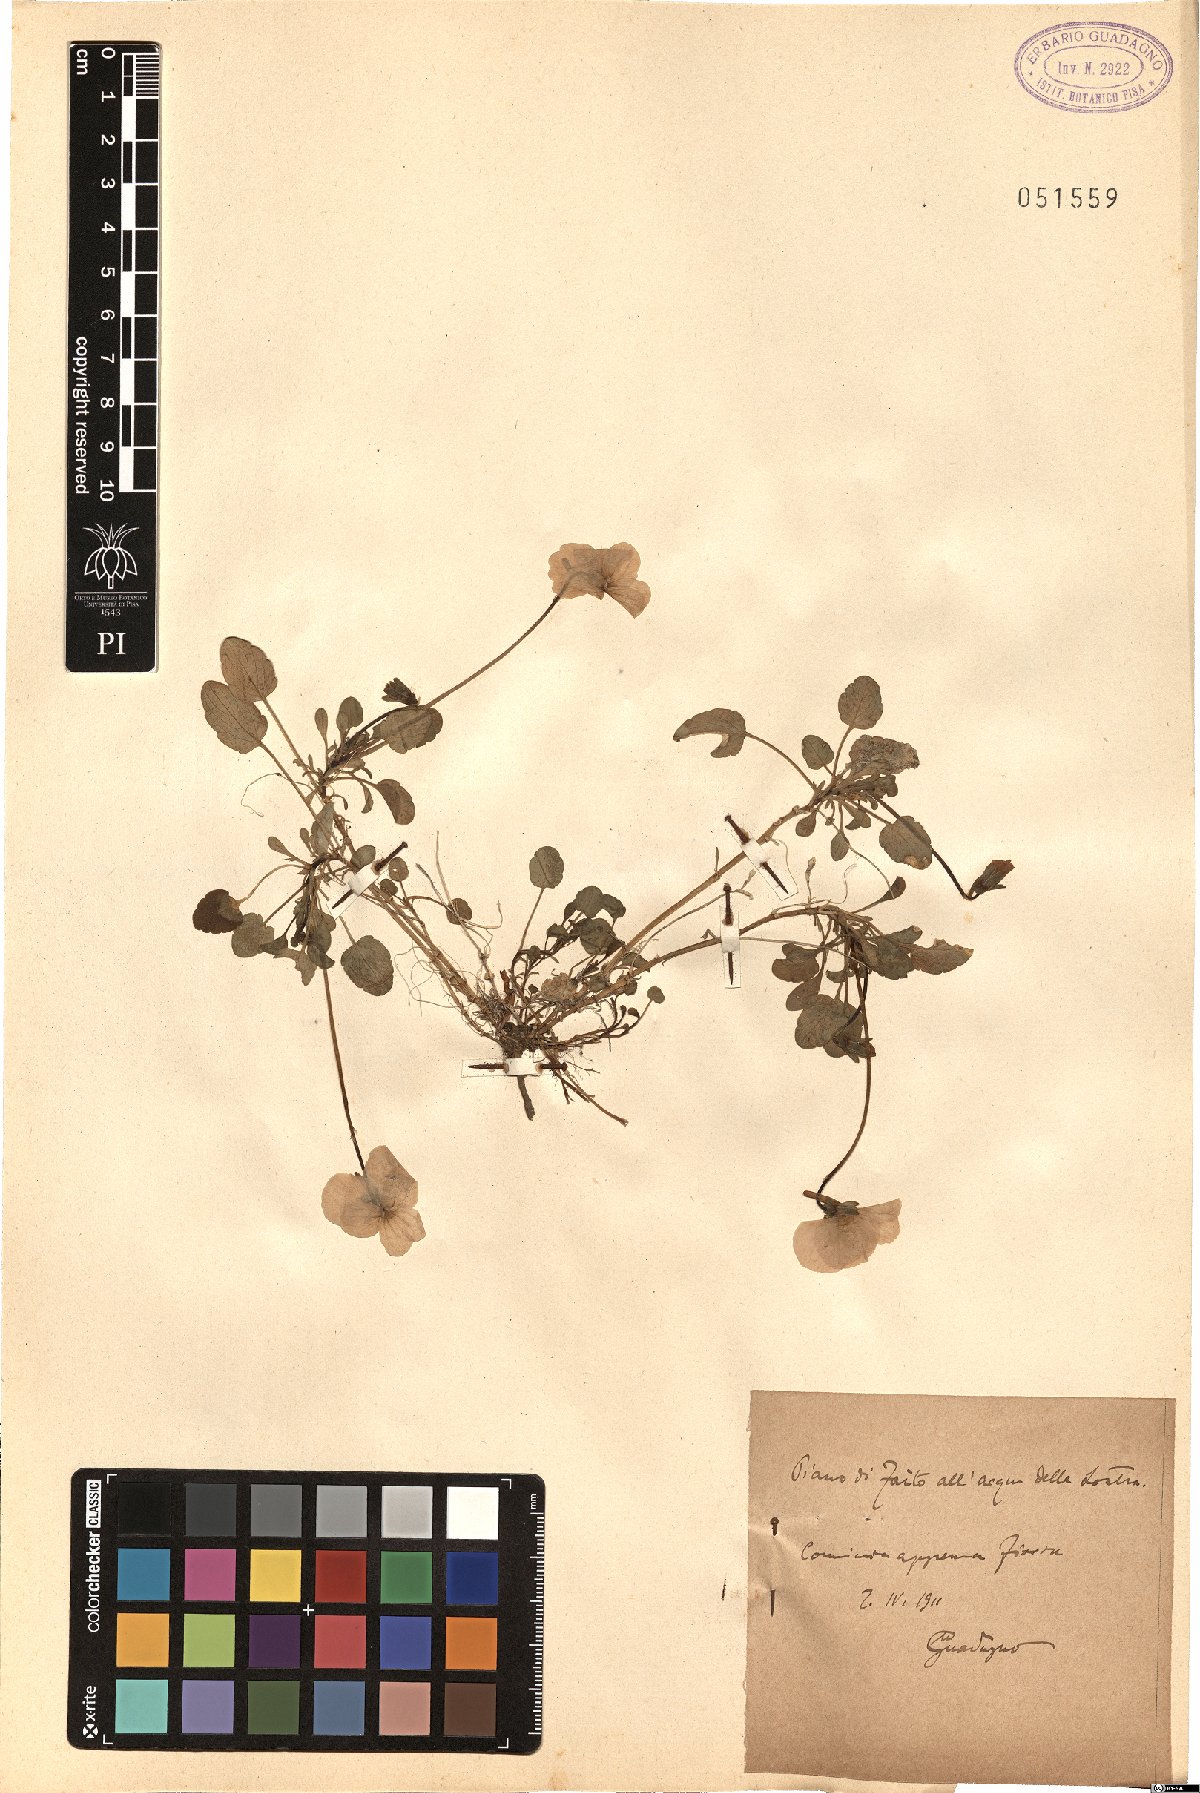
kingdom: Plantae
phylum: Tracheophyta
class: Magnoliopsida
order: Malpighiales
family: Violaceae
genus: Viola
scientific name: Viola
